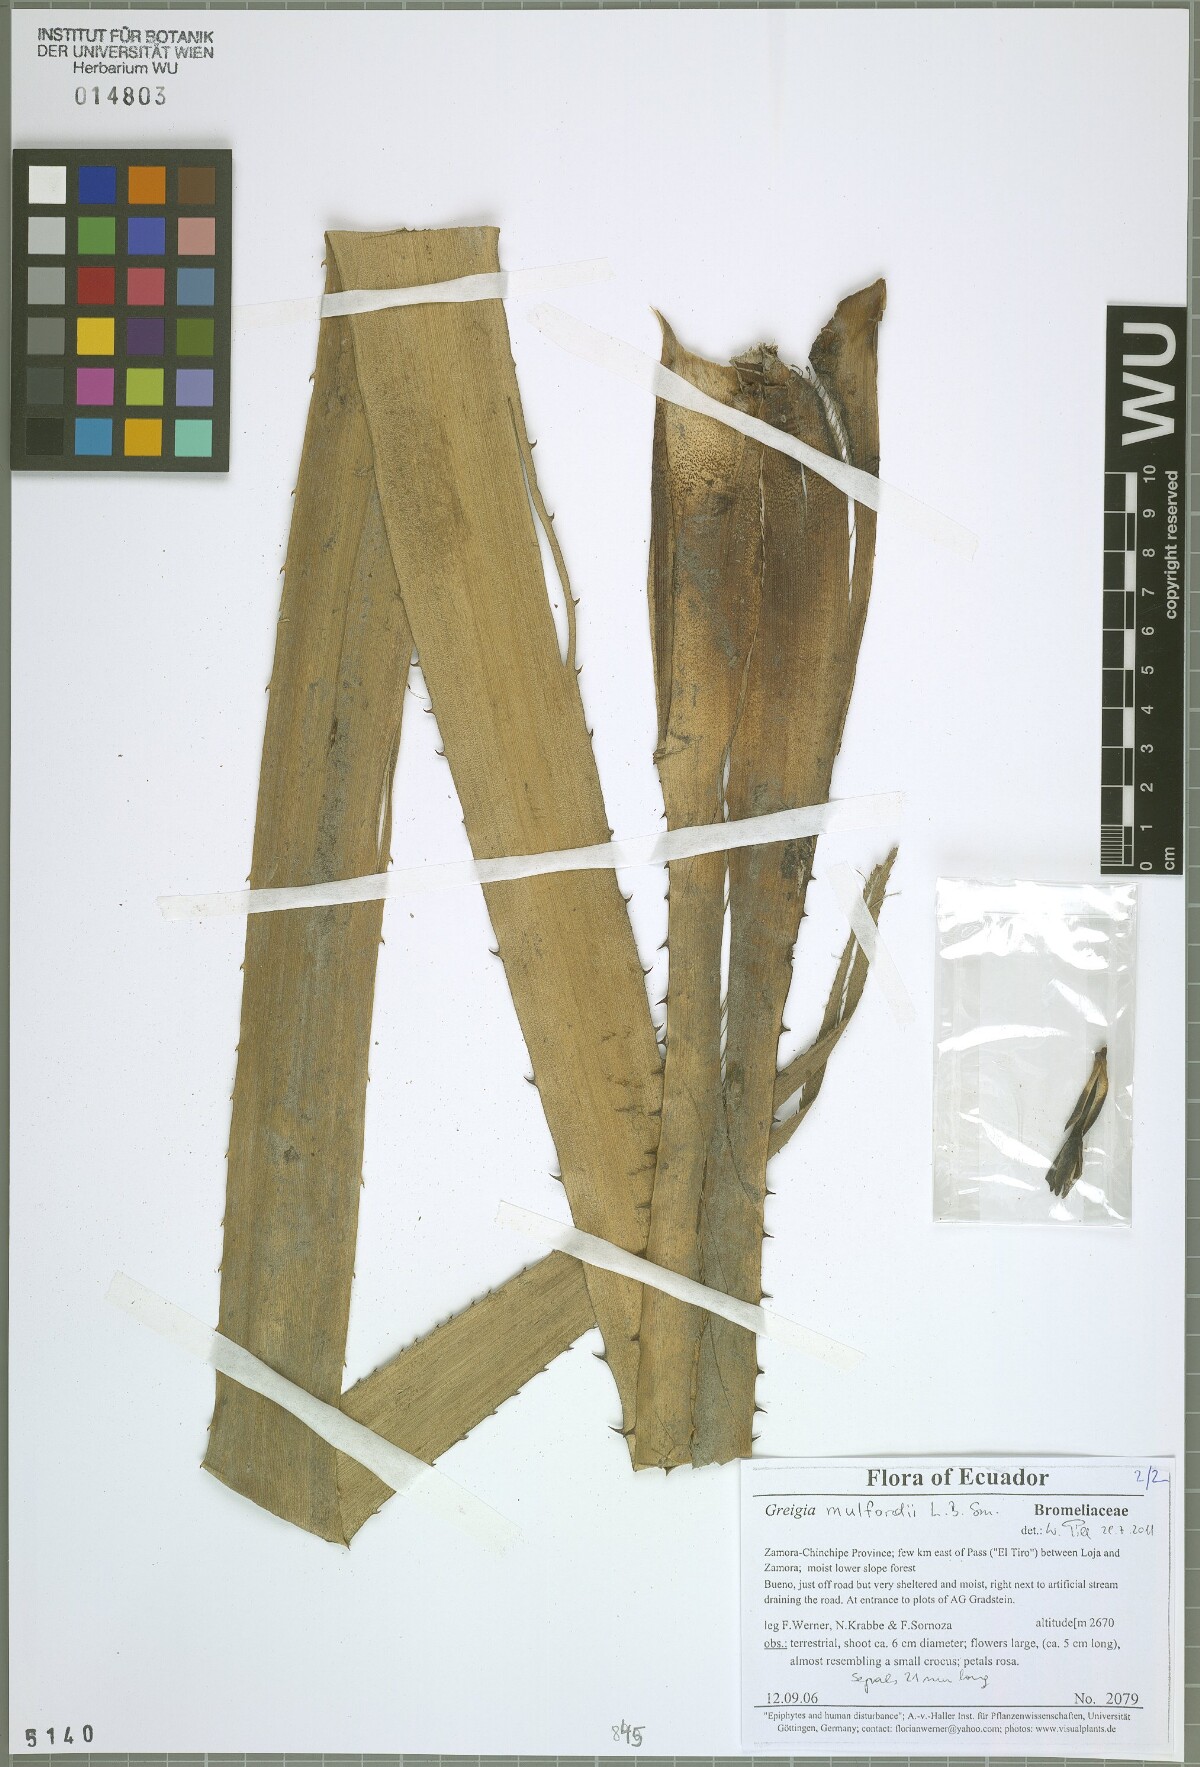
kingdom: Plantae
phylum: Tracheophyta
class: Liliopsida
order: Poales
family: Bromeliaceae
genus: Greigia
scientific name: Greigia mulfordii
